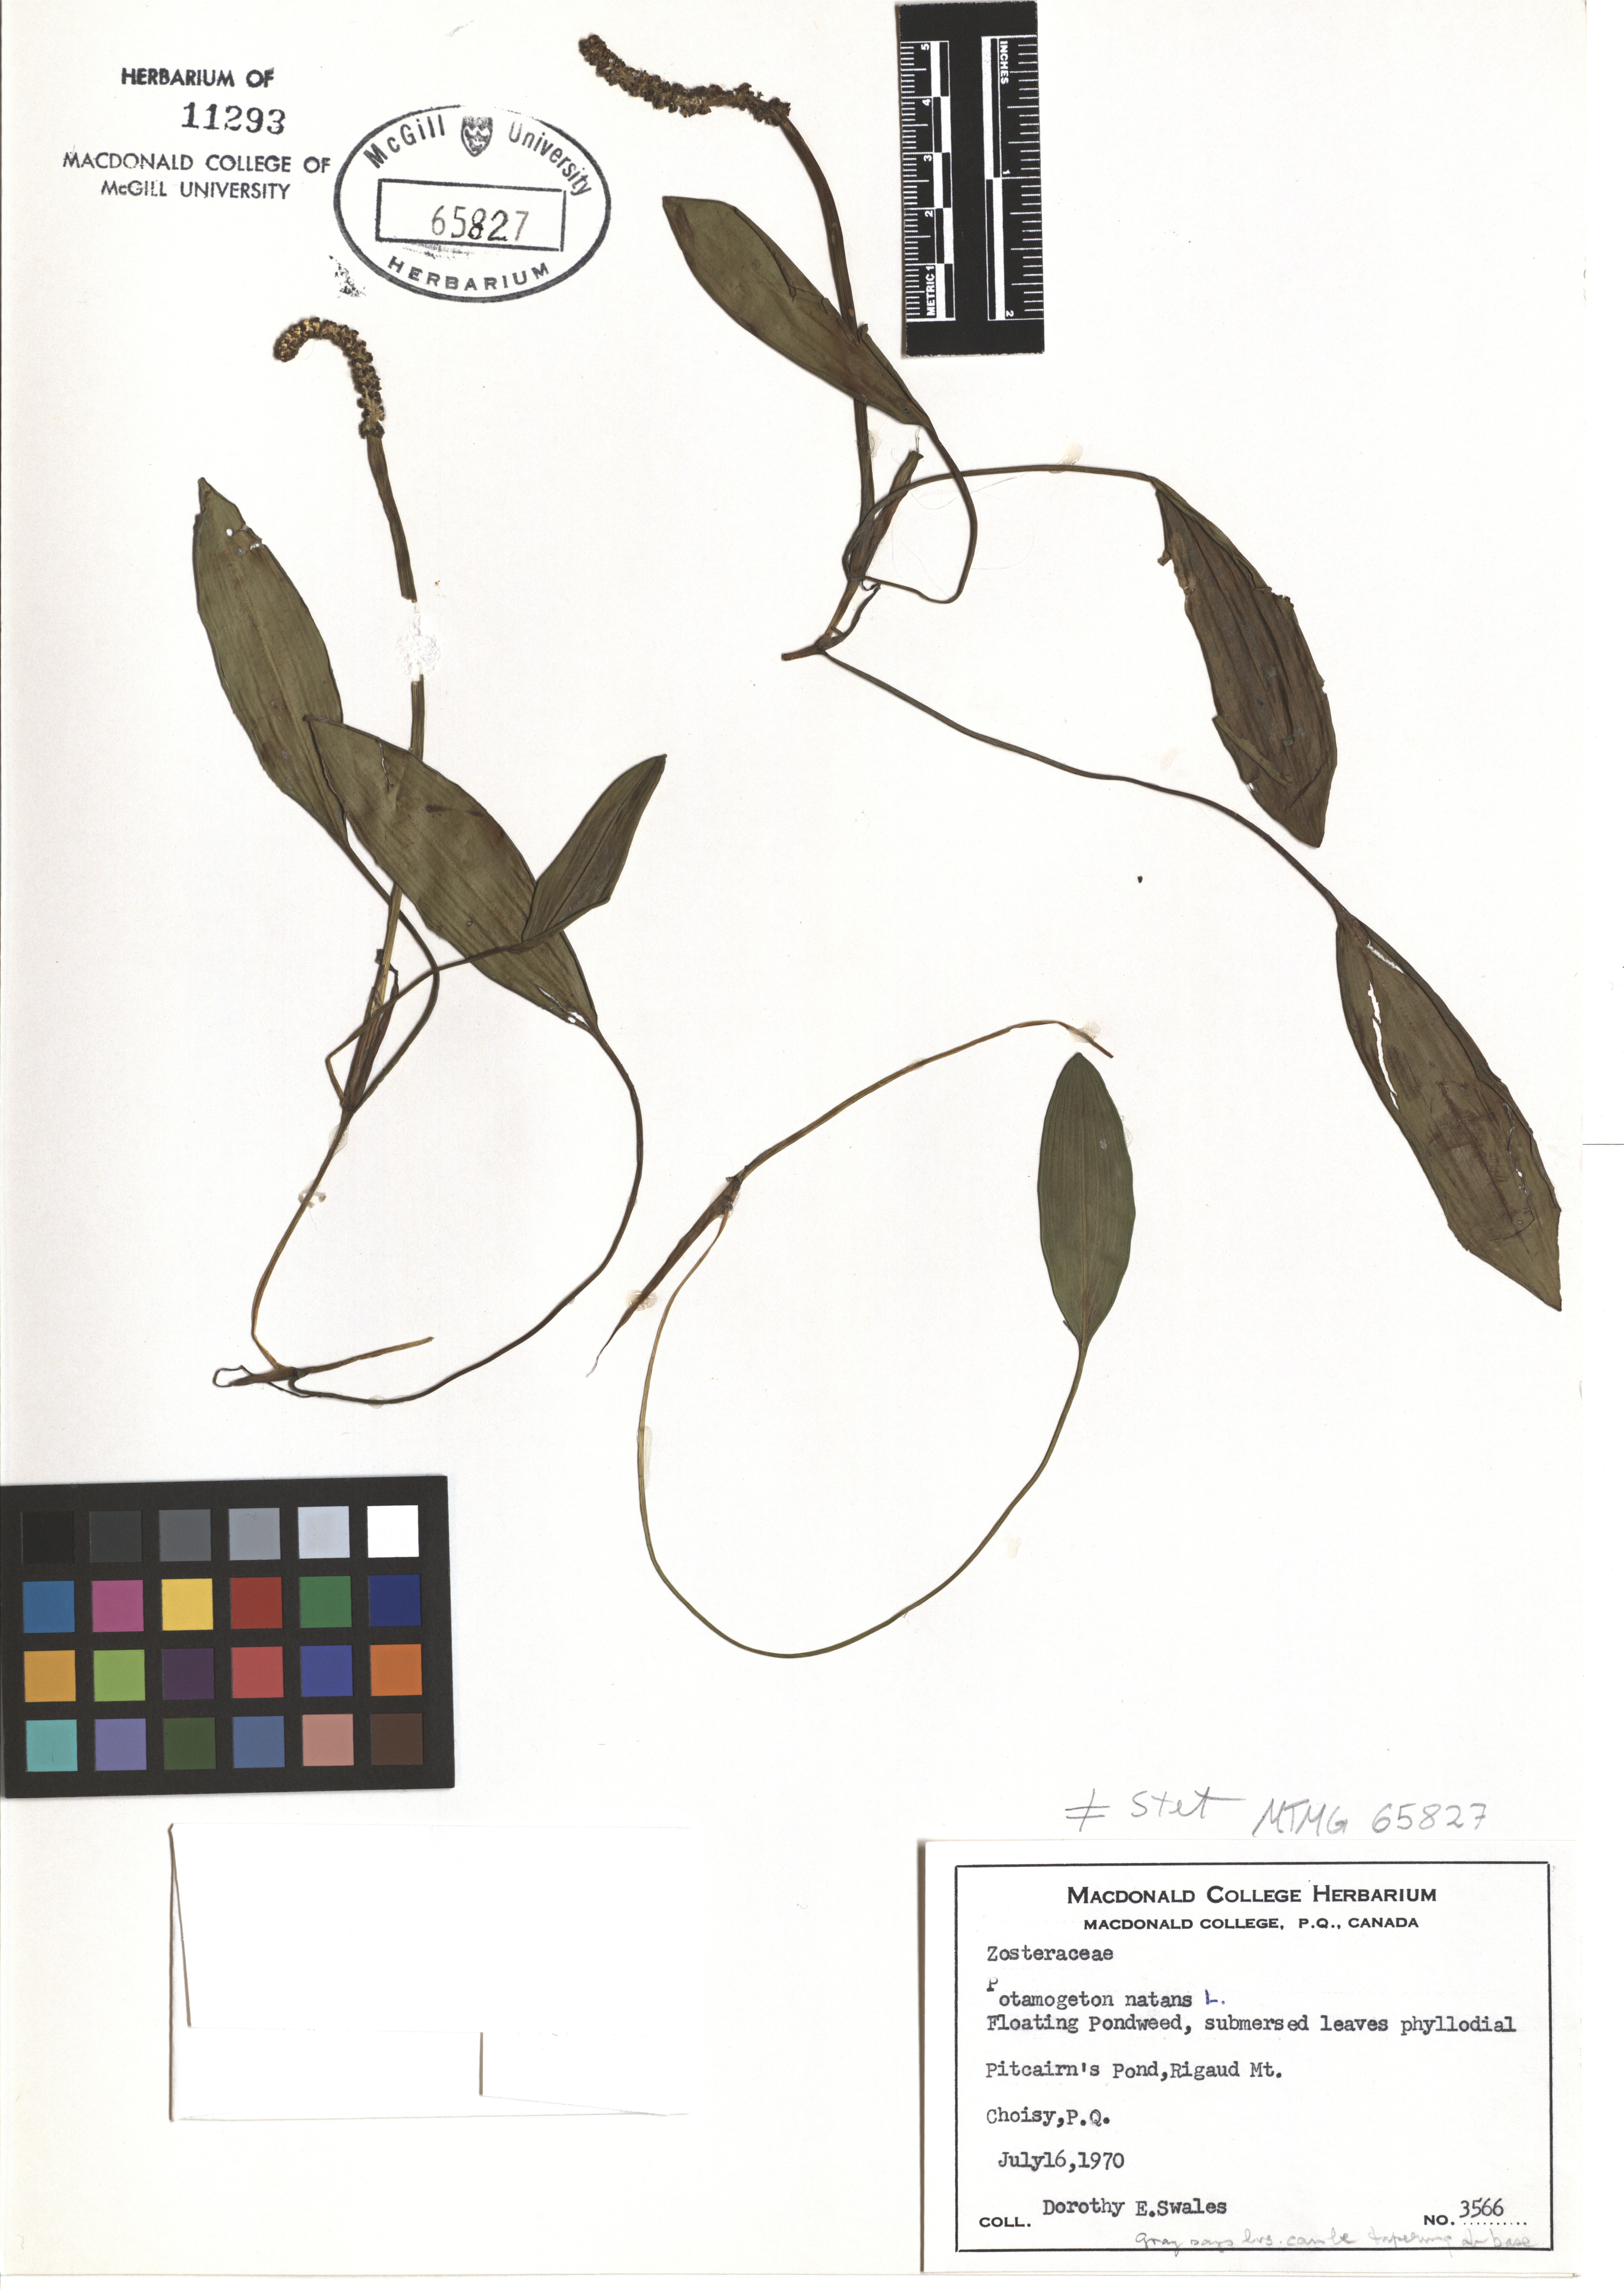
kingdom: Plantae
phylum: Tracheophyta
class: Liliopsida
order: Alismatales
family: Potamogetonaceae
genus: Potamogeton
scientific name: Potamogeton natans
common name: Broad-leaved pondweed
